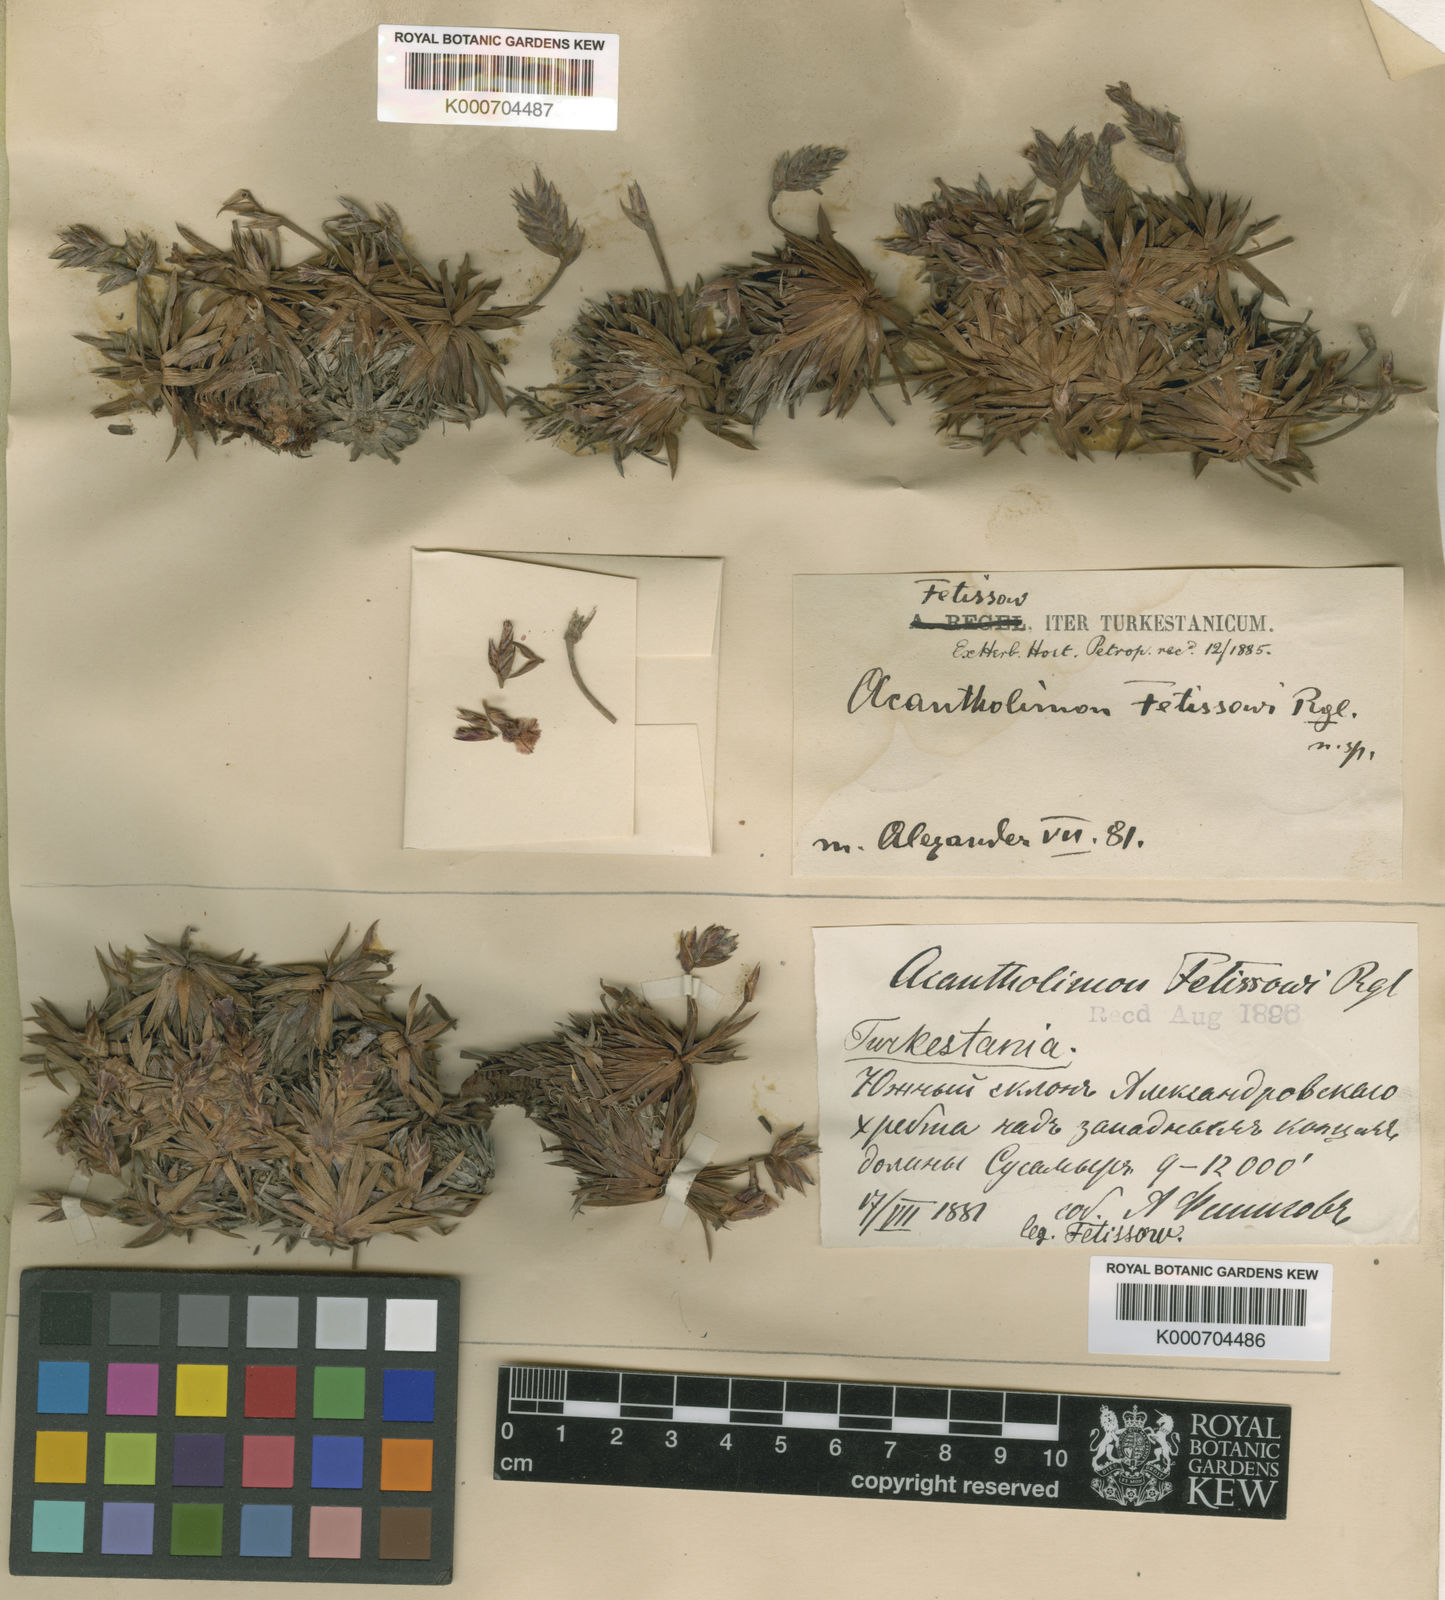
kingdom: Plantae
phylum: Tracheophyta
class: Magnoliopsida
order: Caryophyllales
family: Plumbaginaceae
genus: Acantholimon
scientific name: Acantholimon
